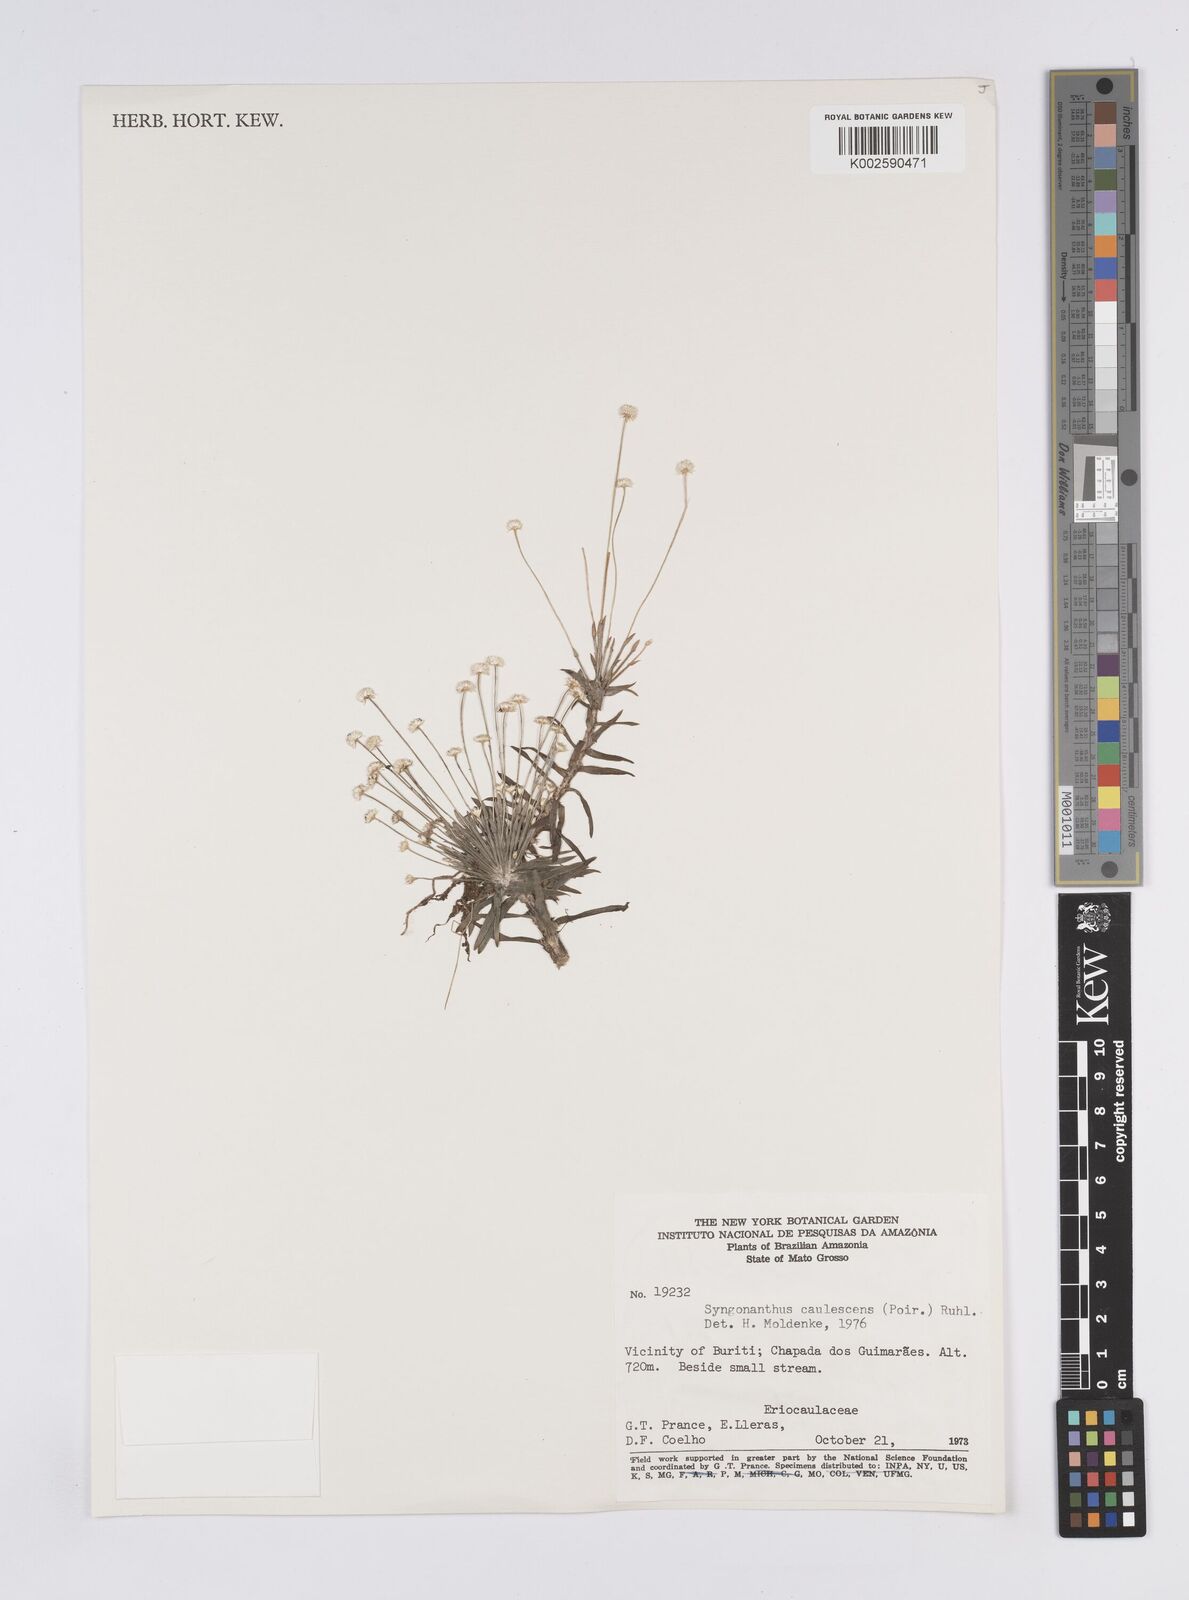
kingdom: Plantae
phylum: Tracheophyta
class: Liliopsida
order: Poales
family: Eriocaulaceae
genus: Syngonanthus
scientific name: Syngonanthus caulescens
